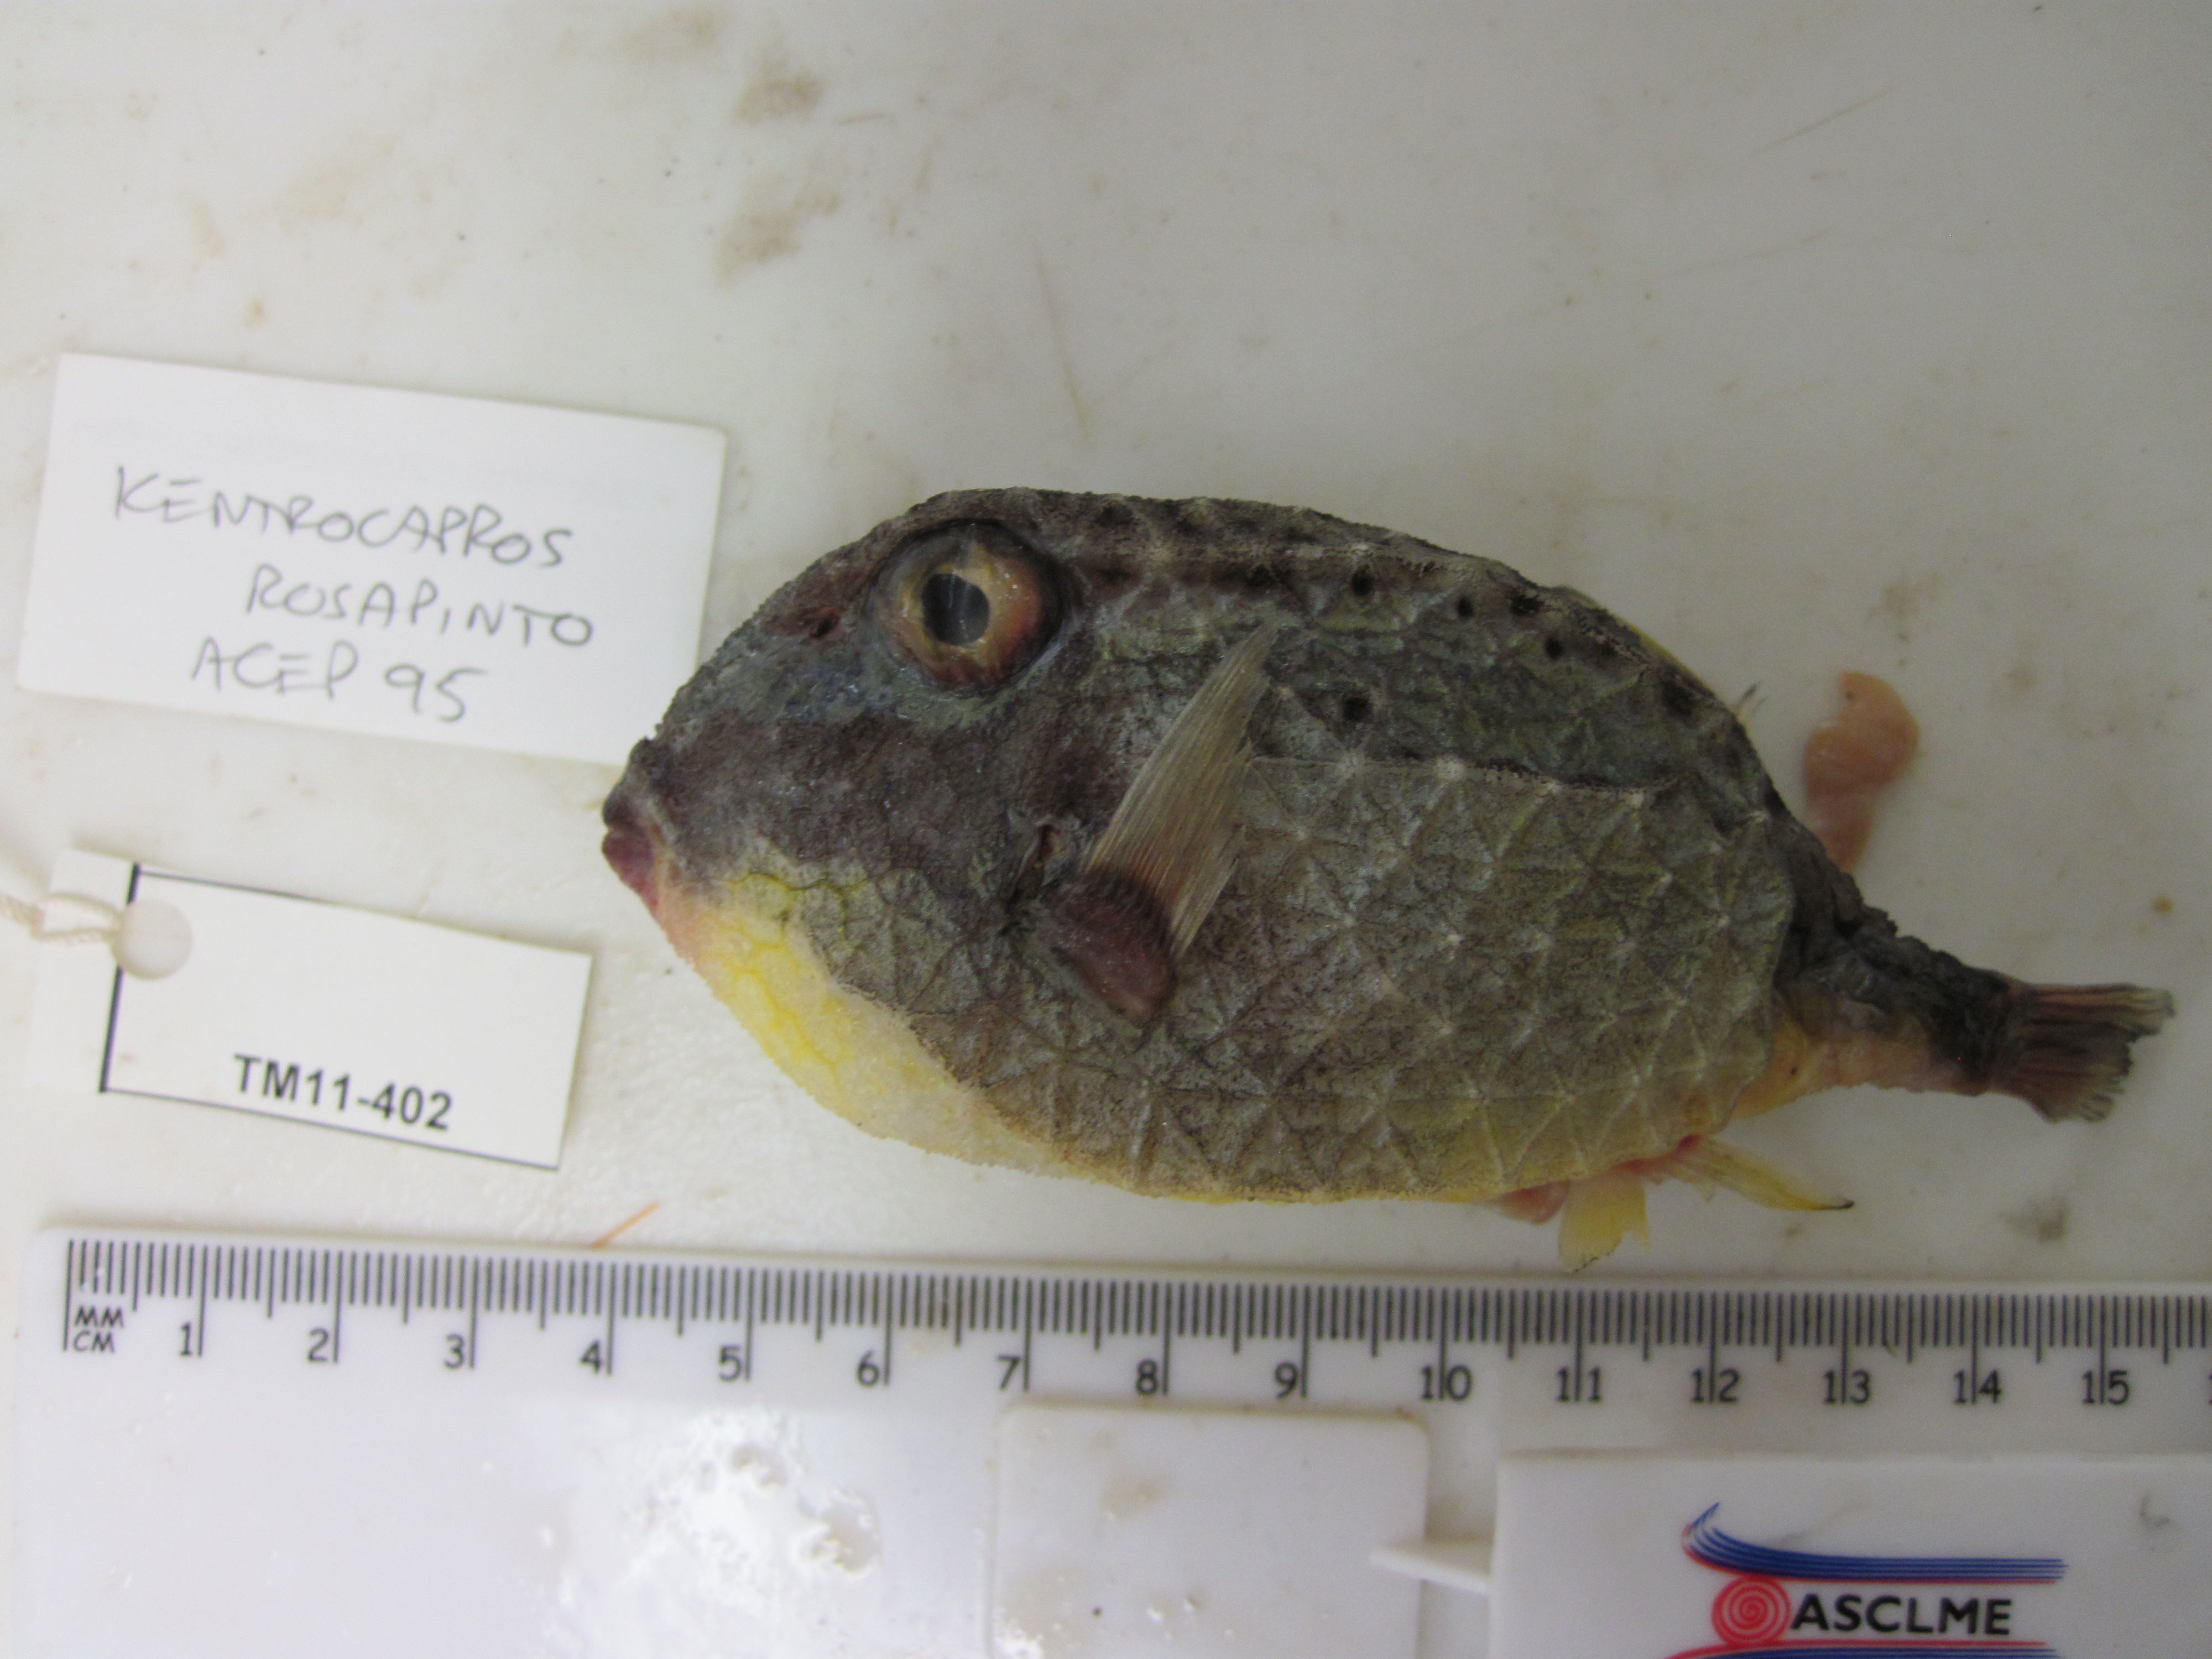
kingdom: Animalia
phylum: Chordata
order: Tetraodontiformes
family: Aracanidae
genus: Kentrocapros
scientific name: Kentrocapros rosapinto
